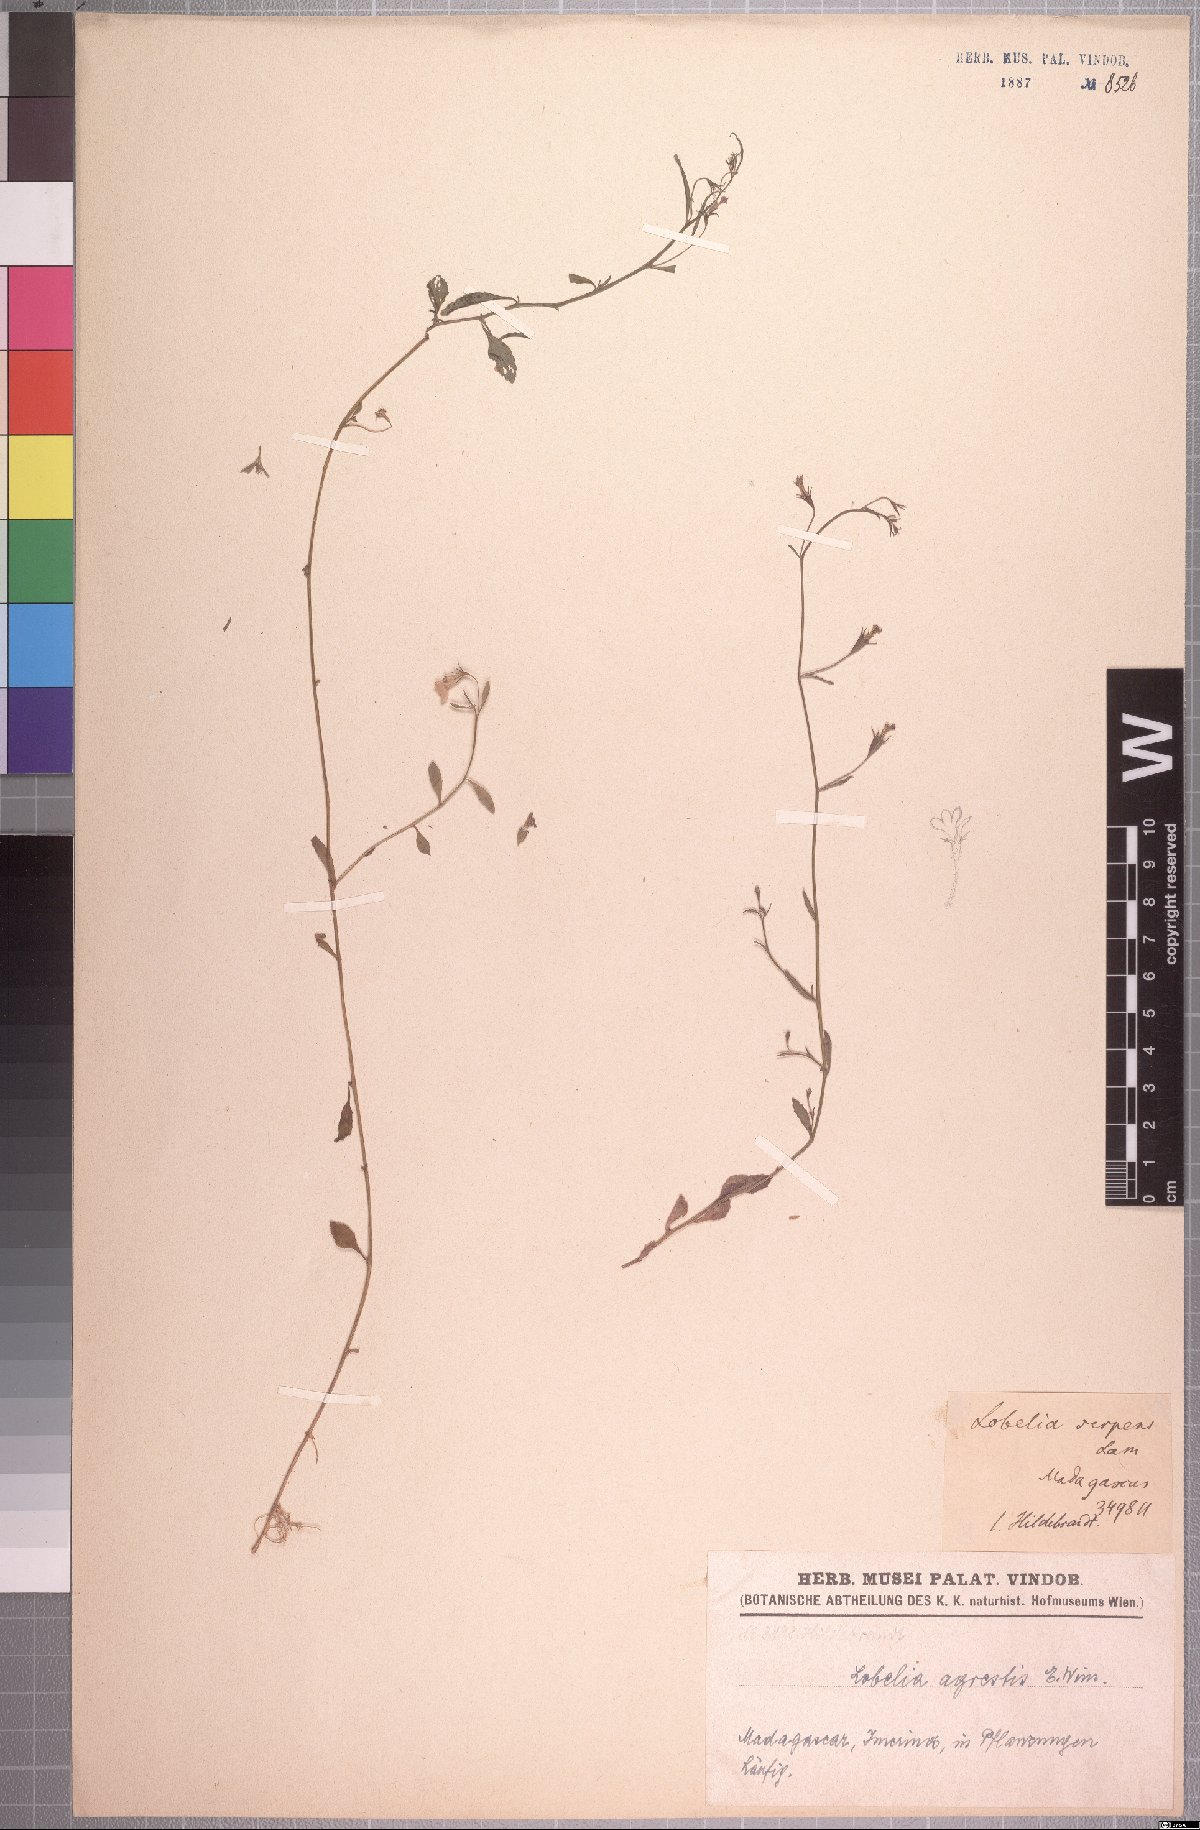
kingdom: Plantae
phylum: Tracheophyta
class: Magnoliopsida
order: Asterales
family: Campanulaceae
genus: Lobelia
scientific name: Lobelia agrestis
